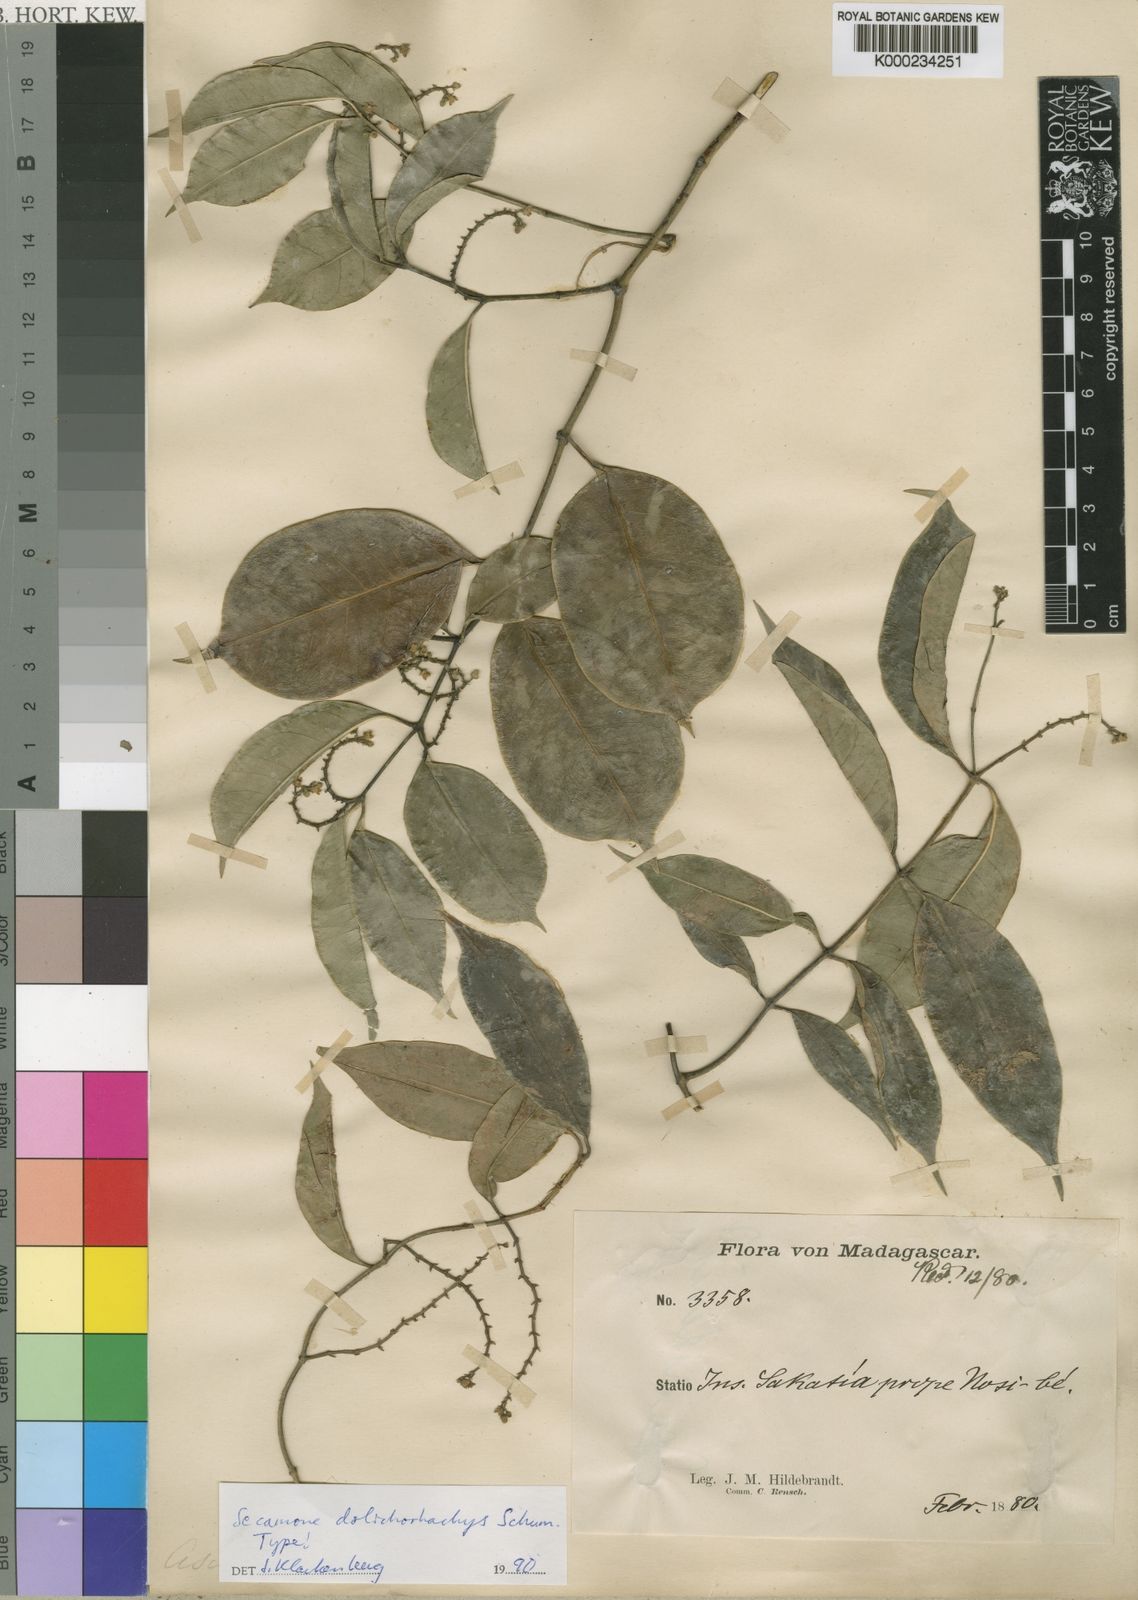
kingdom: Plantae
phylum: Tracheophyta
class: Magnoliopsida
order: Gentianales
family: Apocynaceae
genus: Secamone
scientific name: Secamone dolichorhachys
